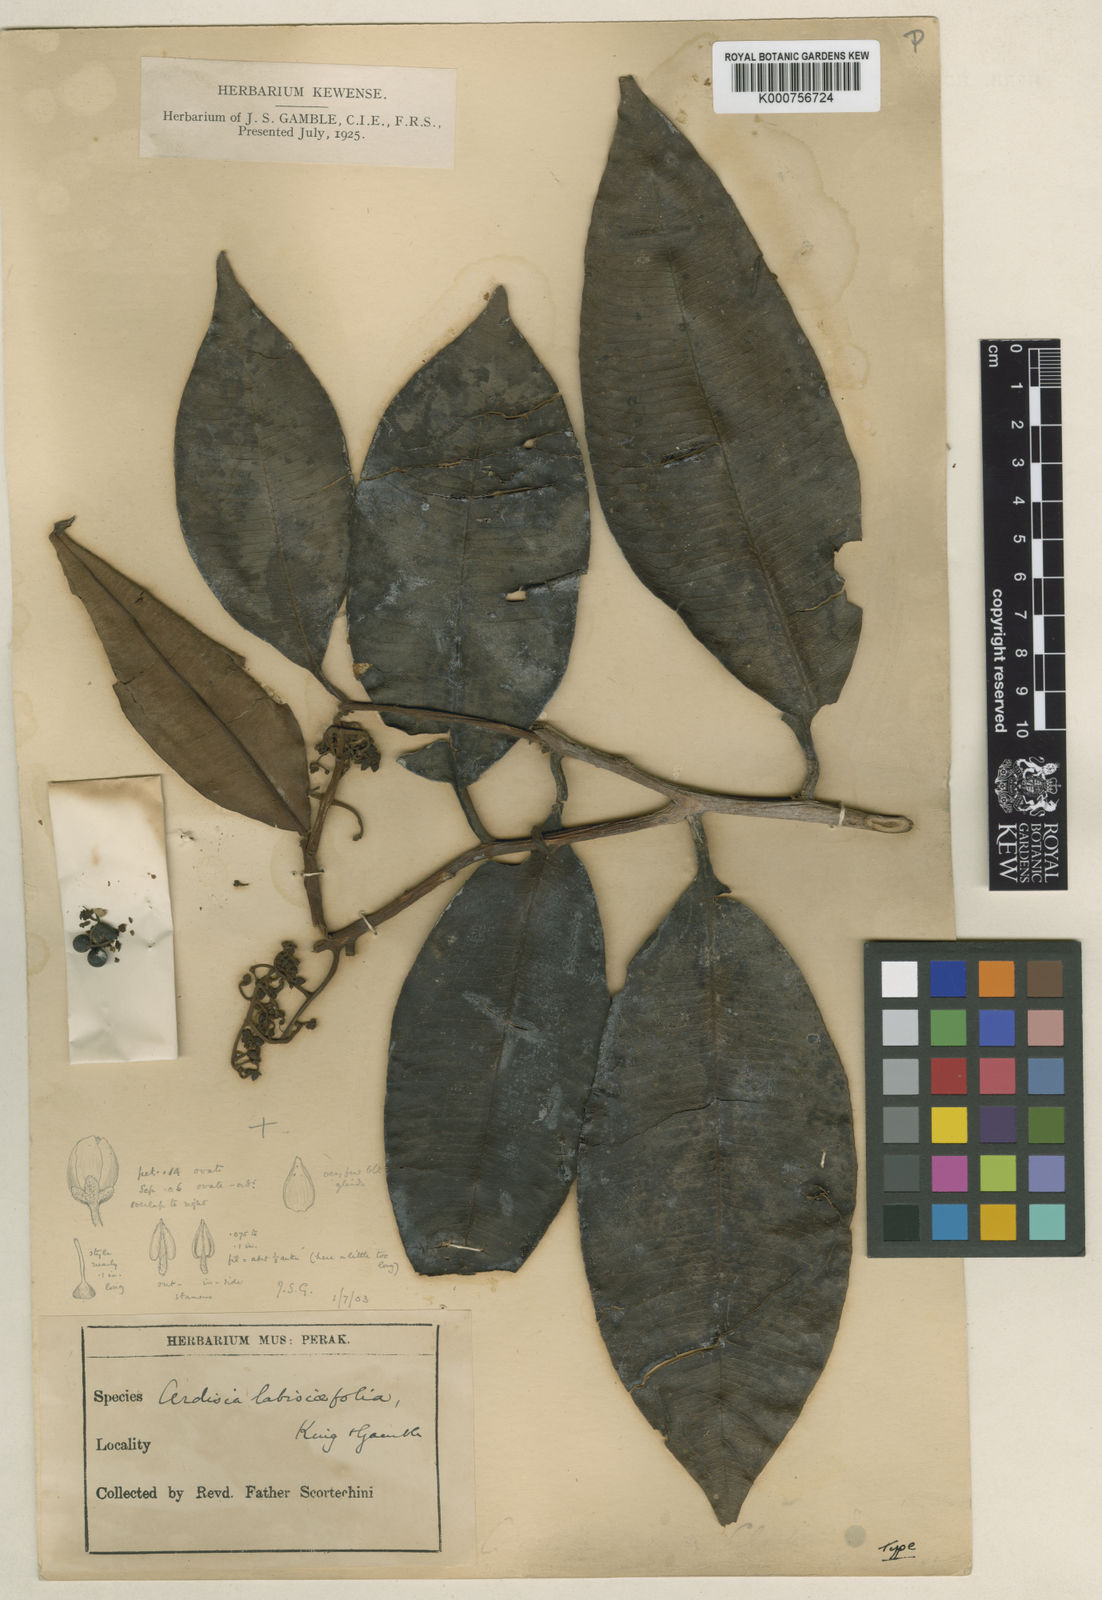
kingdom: Plantae
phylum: Tracheophyta
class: Magnoliopsida
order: Ericales
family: Primulaceae
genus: Ardisia
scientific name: Ardisia
